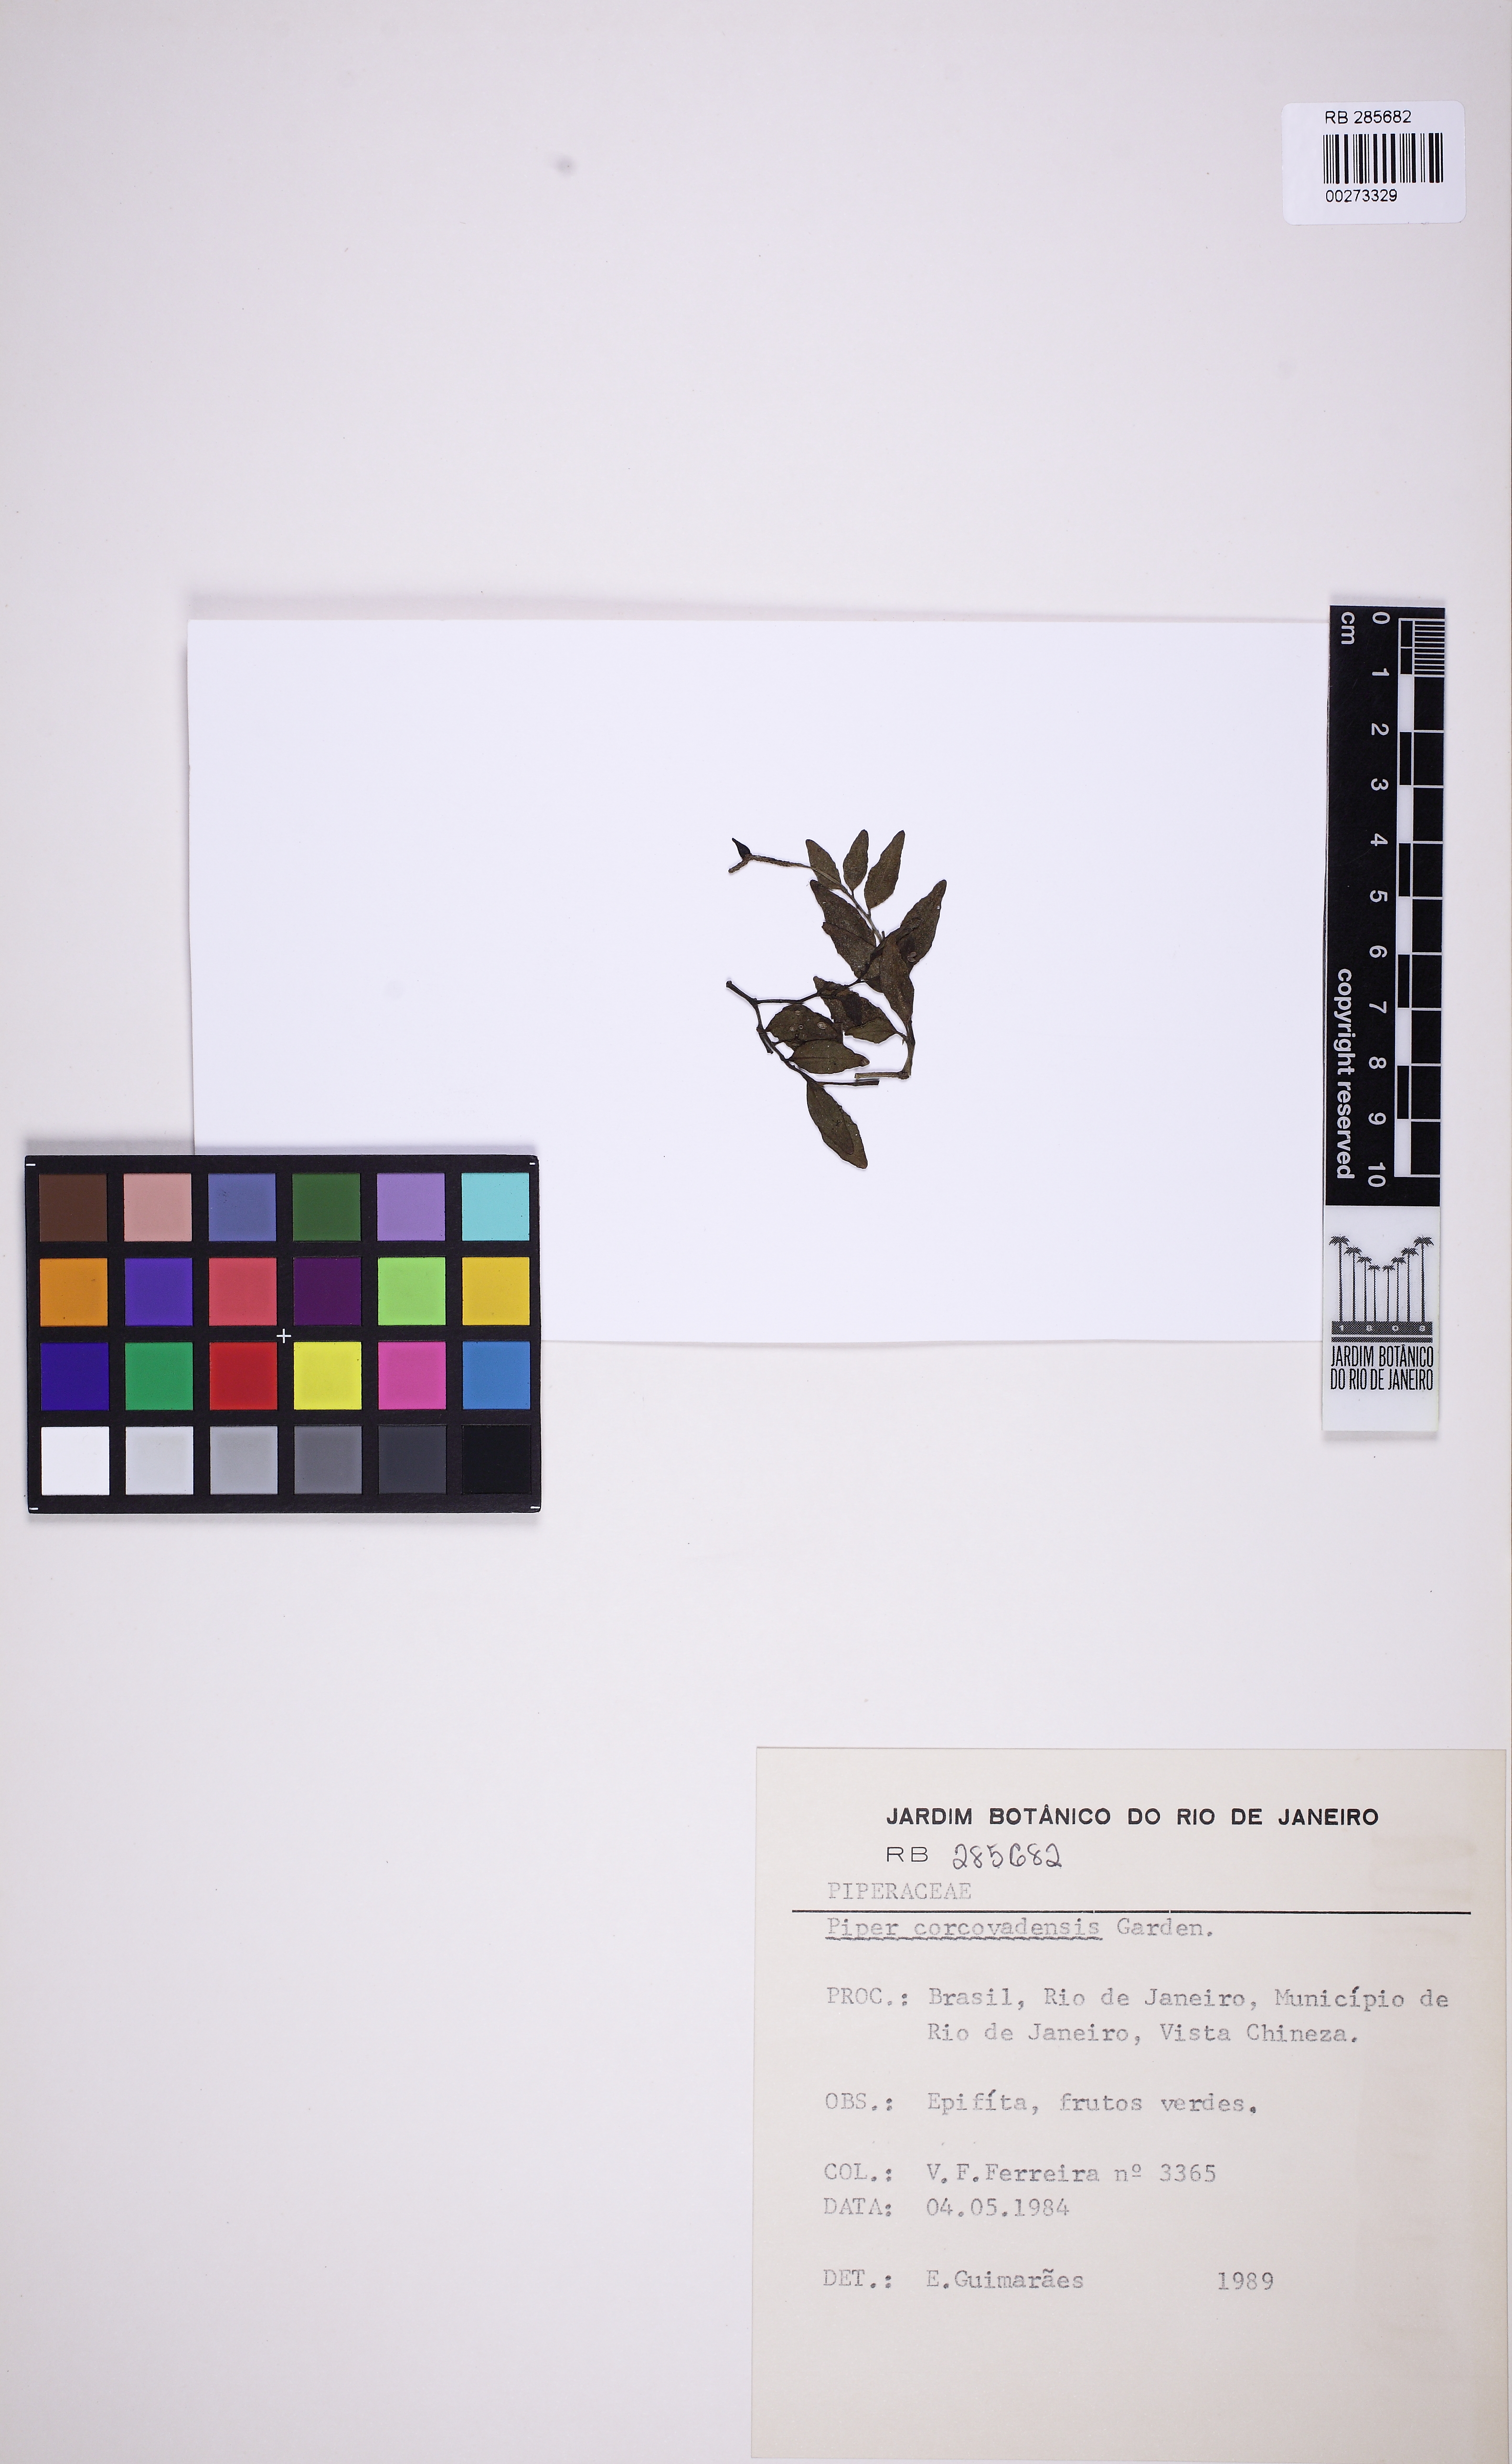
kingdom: Plantae
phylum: Tracheophyta
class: Magnoliopsida
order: Piperales
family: Piperaceae
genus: Peperomia
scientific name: Peperomia corcovadensis
